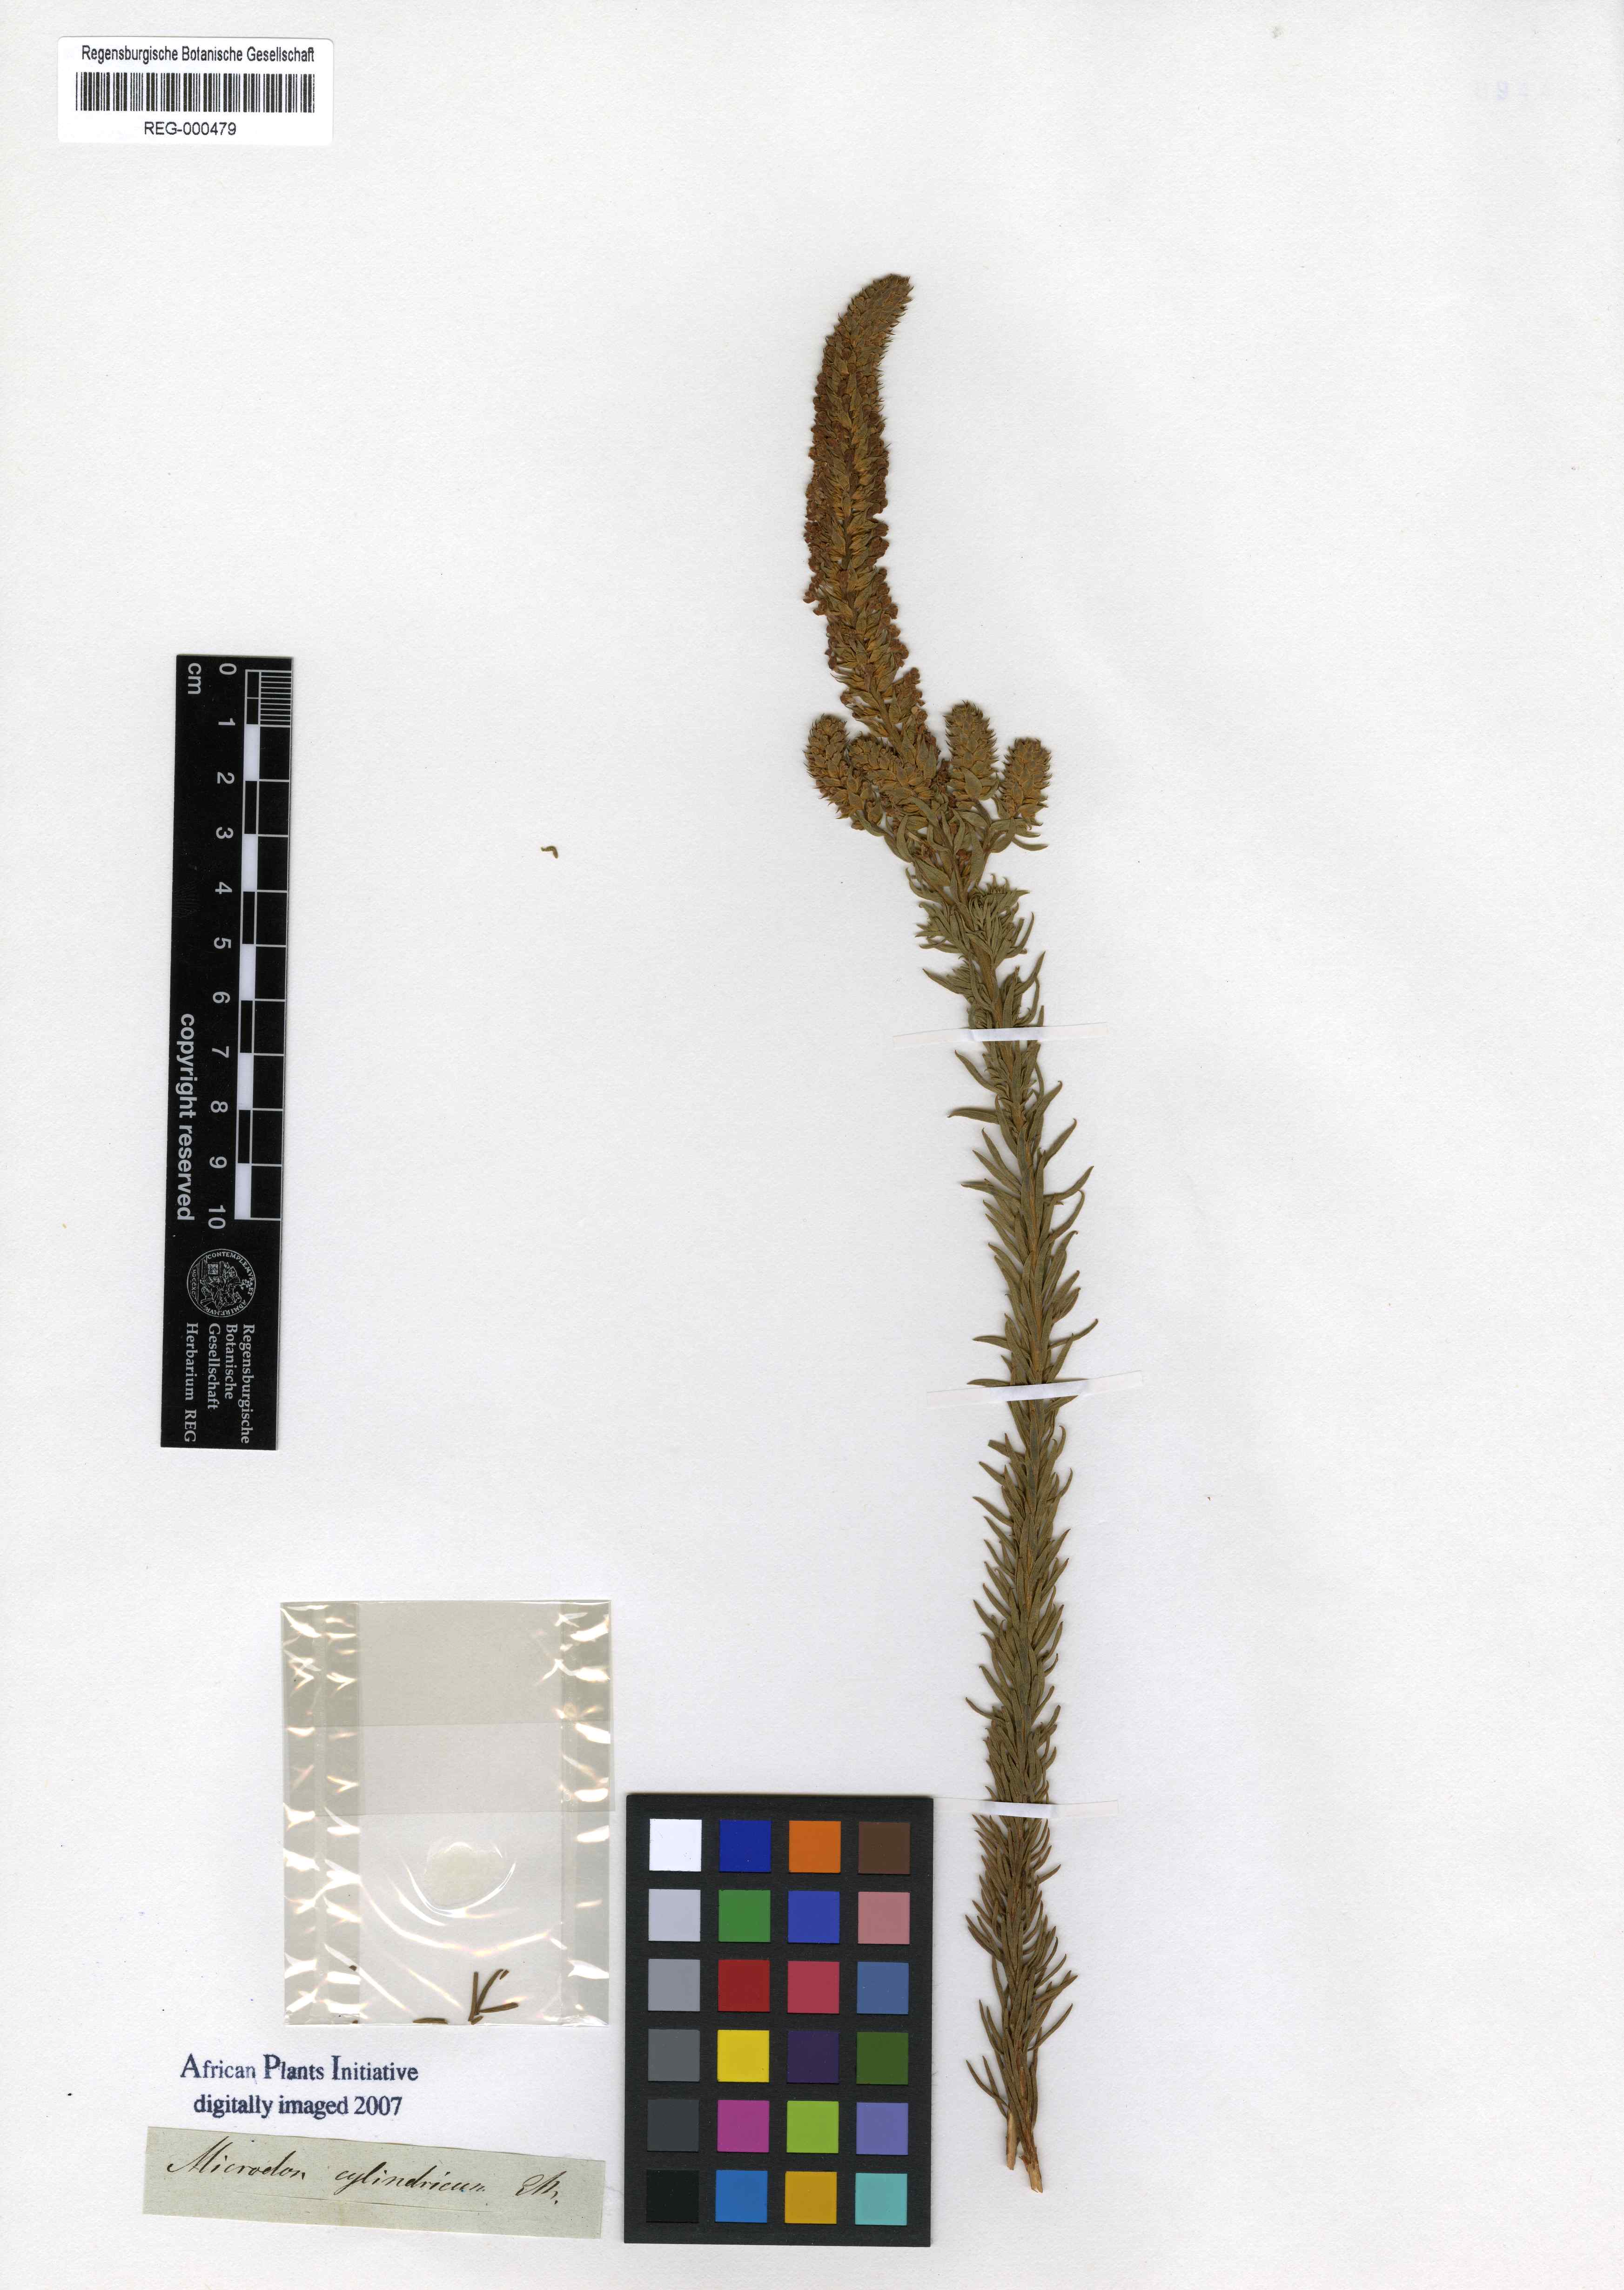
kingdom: Plantae
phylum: Tracheophyta
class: Magnoliopsida
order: Lamiales
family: Scrophulariaceae
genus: Microdon
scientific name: Microdon polygaloides
